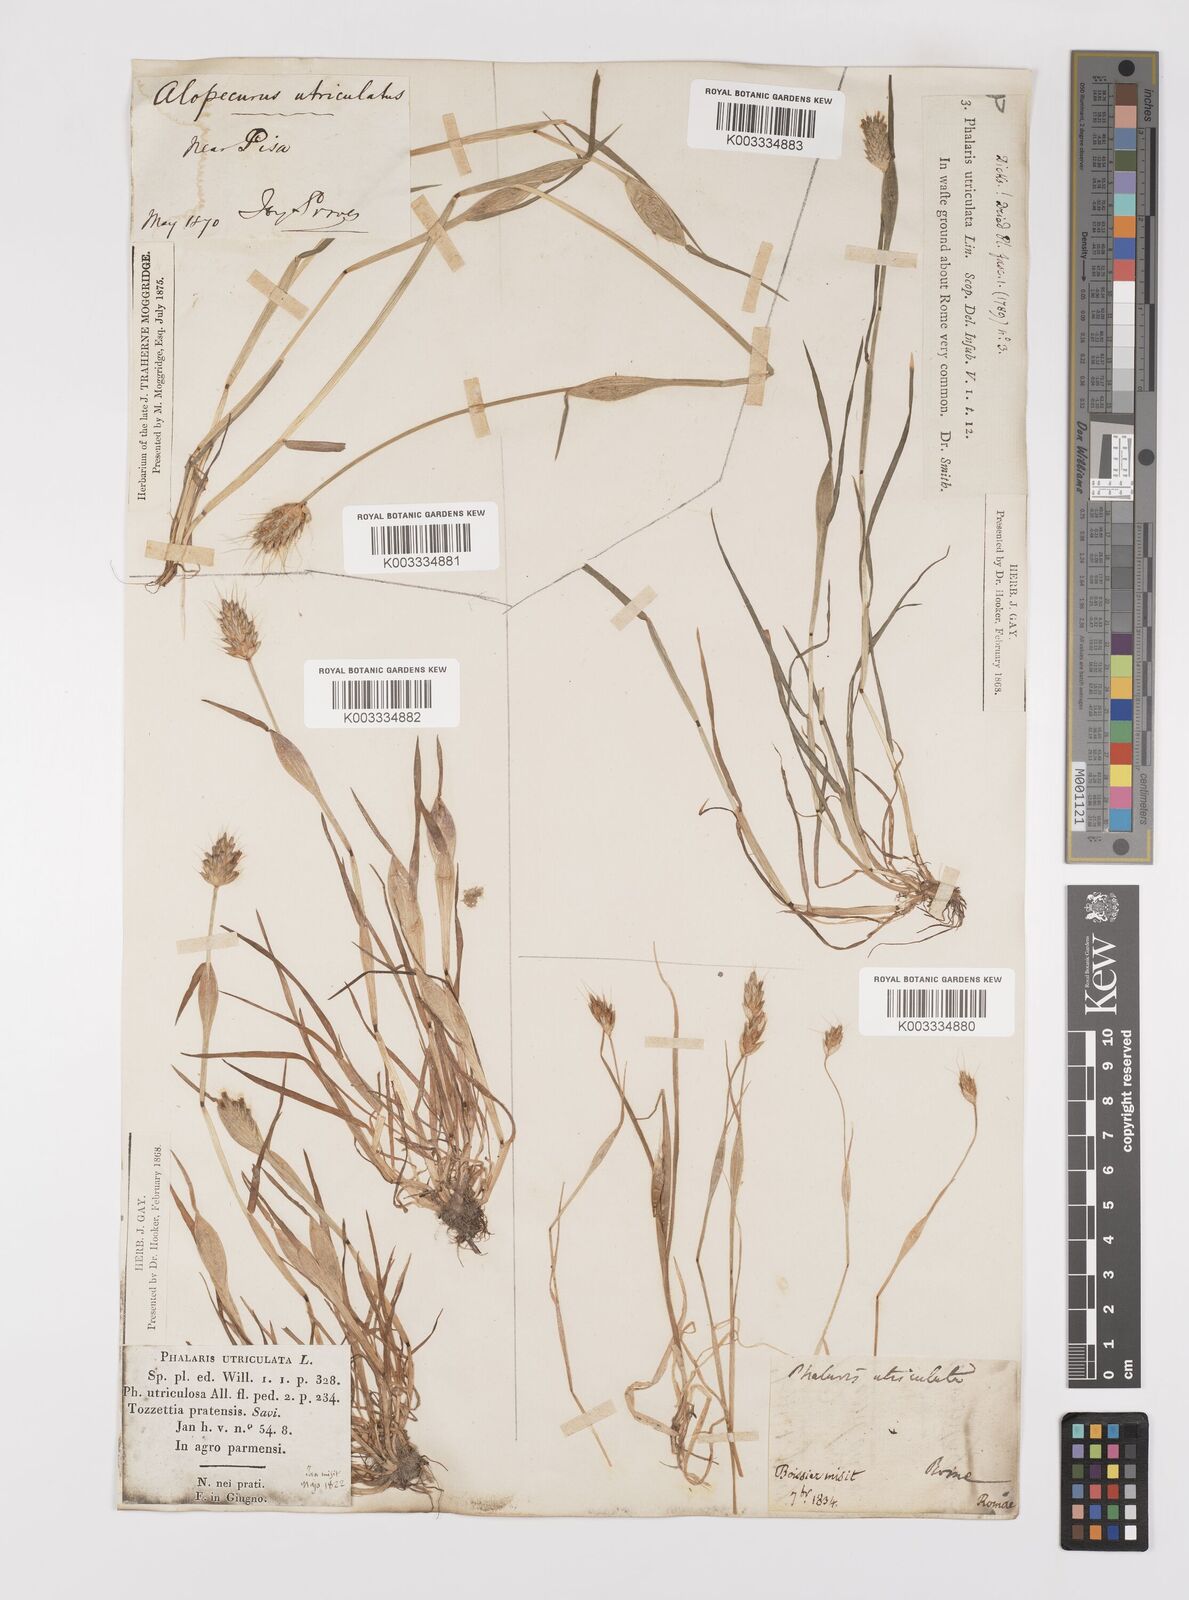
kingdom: Plantae
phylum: Tracheophyta
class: Liliopsida
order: Poales
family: Poaceae
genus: Alopecurus
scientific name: Alopecurus rendlei
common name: Rendle's meadow foxtail
